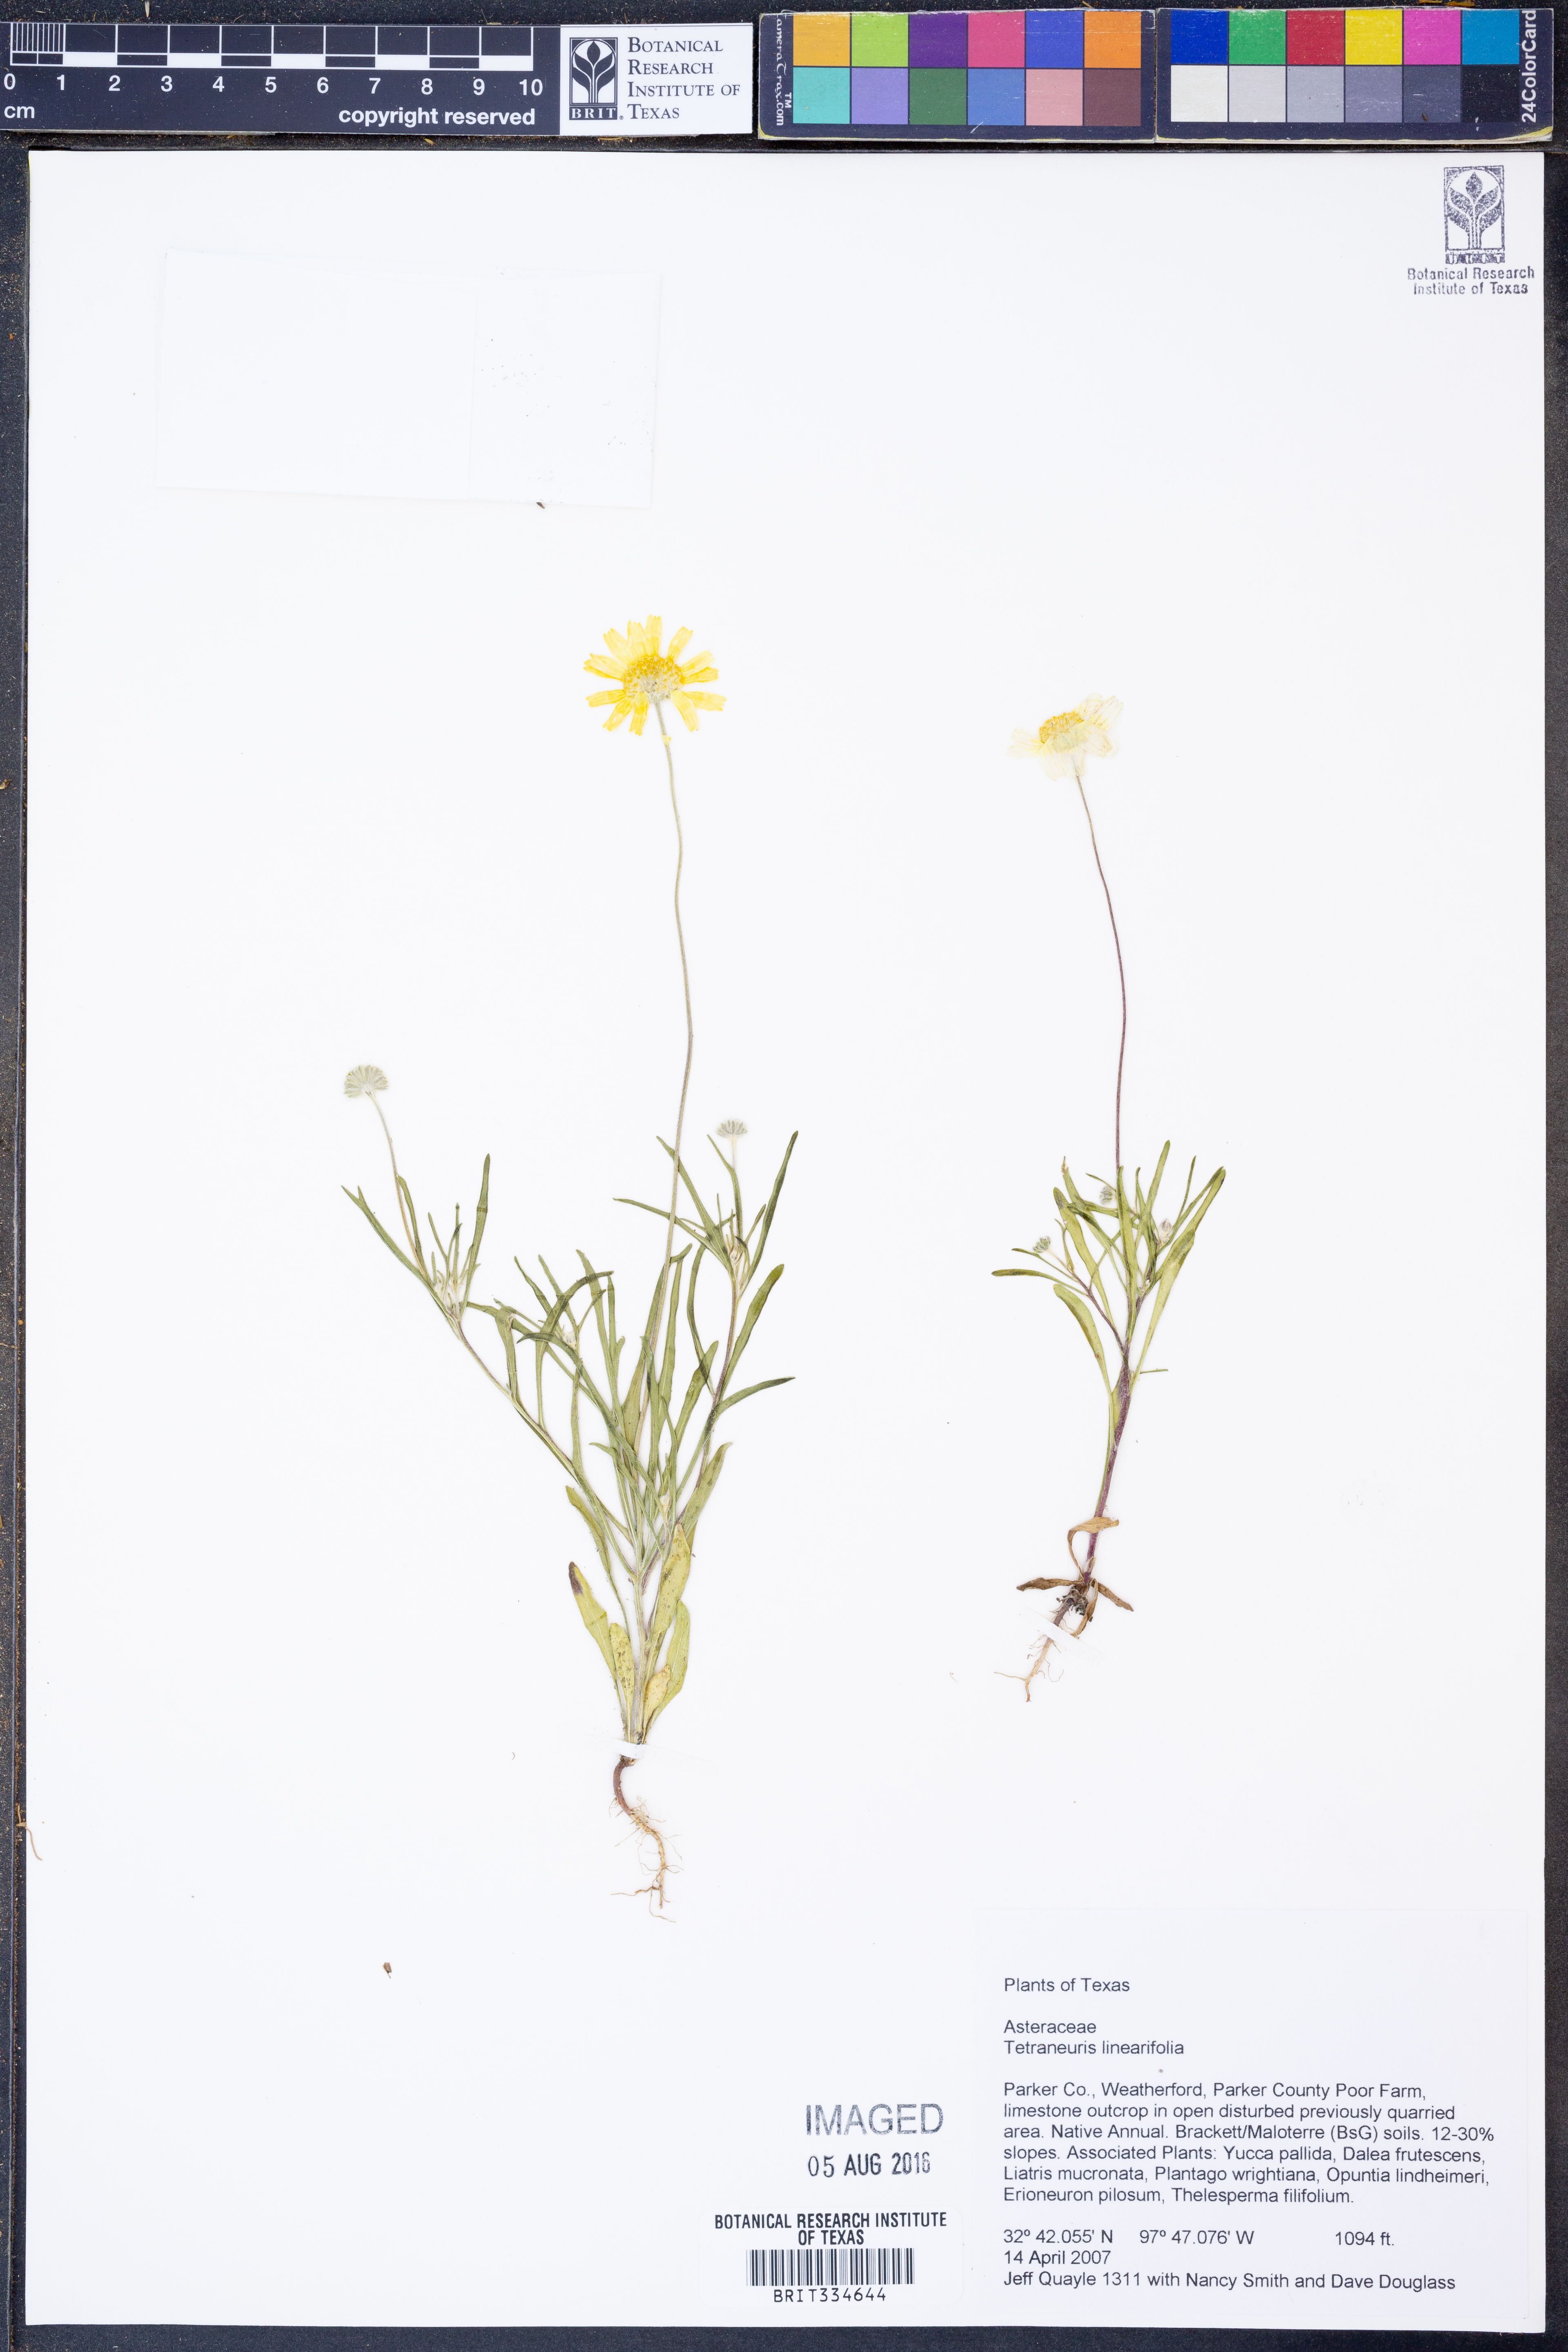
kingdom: Plantae
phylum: Tracheophyta
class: Magnoliopsida
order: Asterales
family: Asteraceae
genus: Tetraneuris
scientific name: Tetraneuris linearifolia
